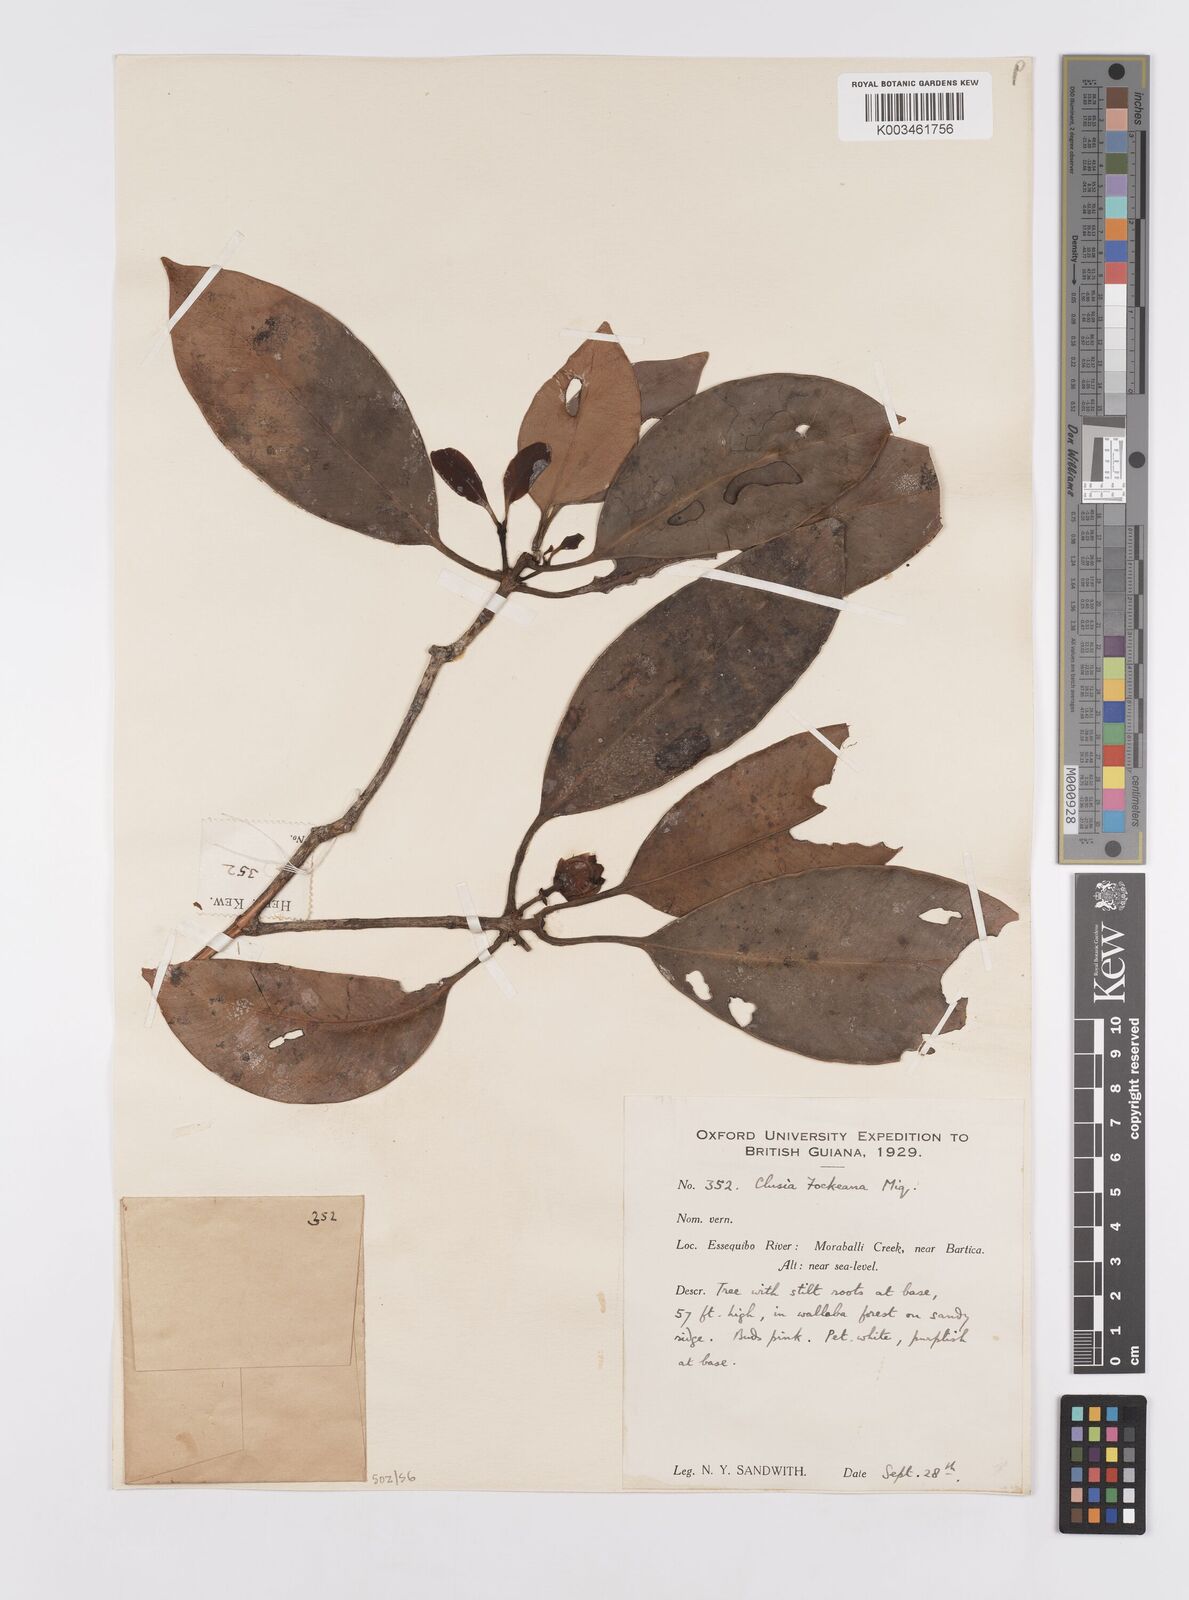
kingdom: Plantae
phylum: Tracheophyta
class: Magnoliopsida
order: Malpighiales
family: Clusiaceae
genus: Clusia
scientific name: Clusia fockeana
